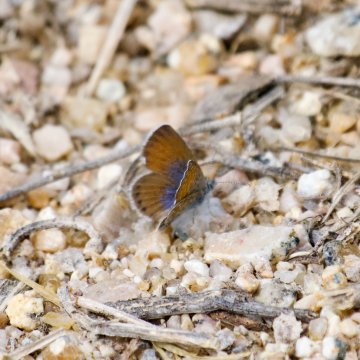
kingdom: Animalia
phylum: Arthropoda
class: Insecta
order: Lepidoptera
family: Lycaenidae
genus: Brephidium
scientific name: Brephidium exilis
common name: Western Pygmy-Blue
